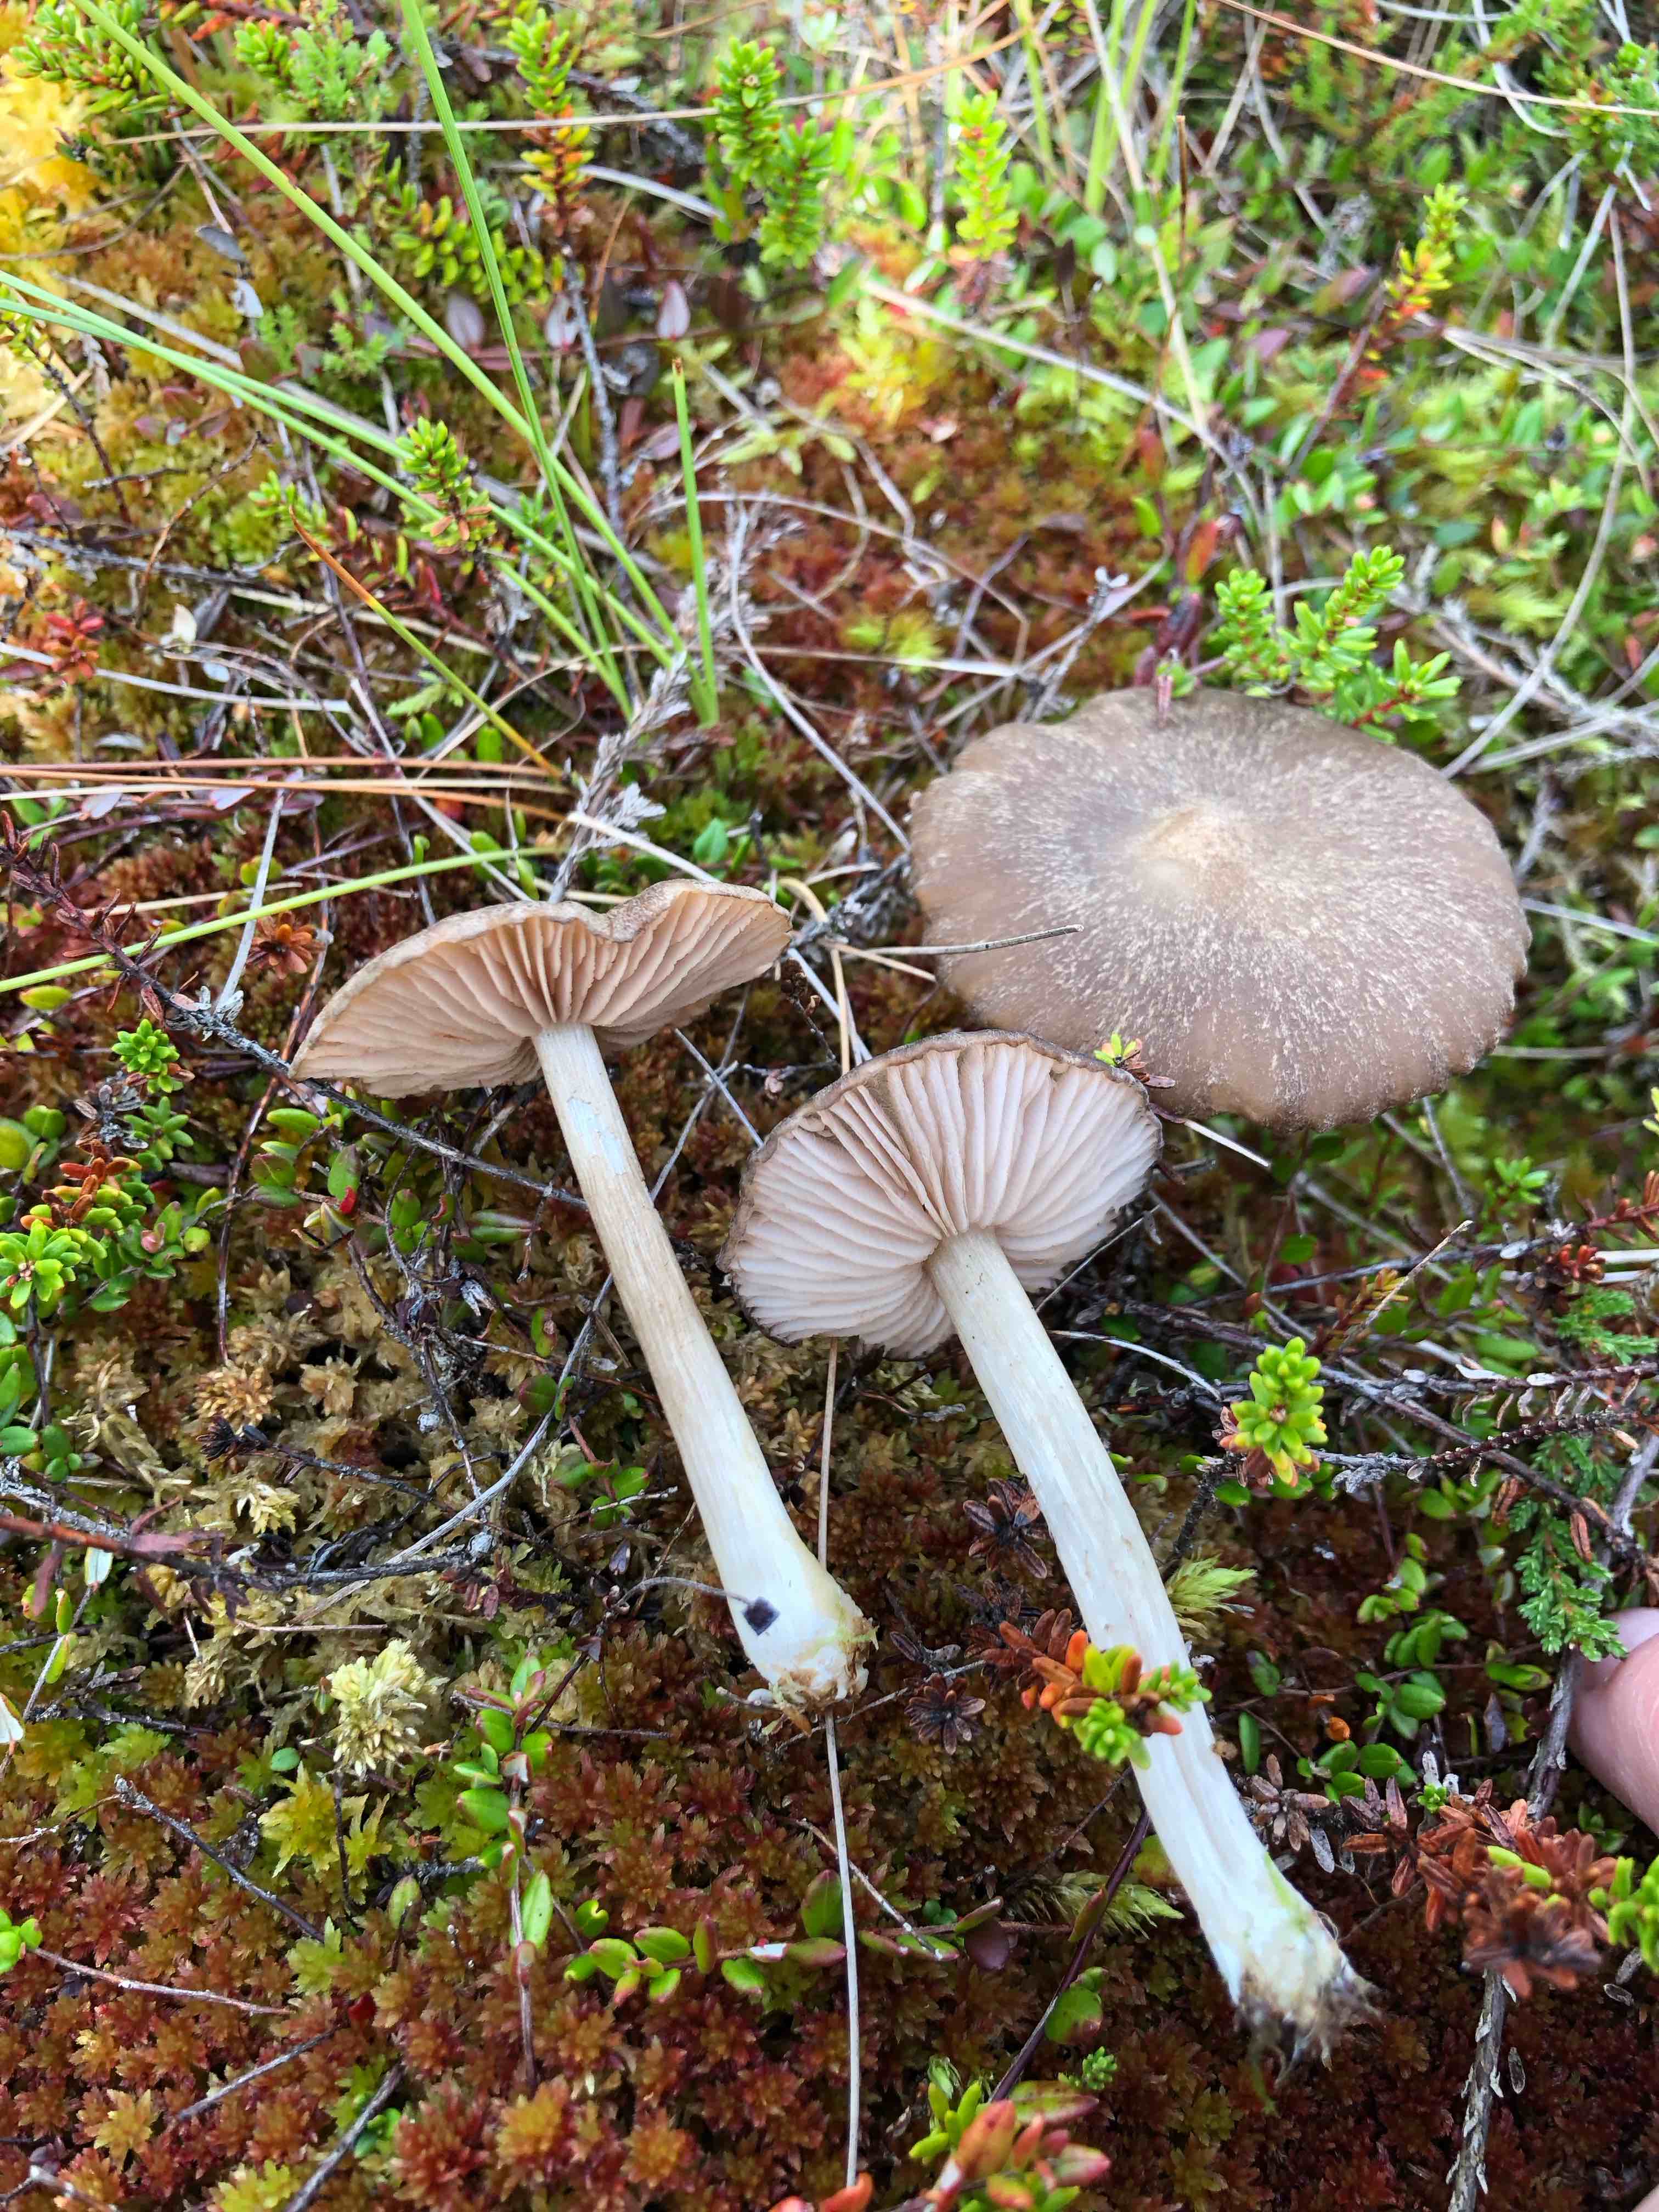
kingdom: Fungi
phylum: Basidiomycota
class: Agaricomycetes
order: Agaricales
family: Entolomataceae
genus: Entoloma
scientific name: Entoloma elodes
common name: mørkægget rødblad
